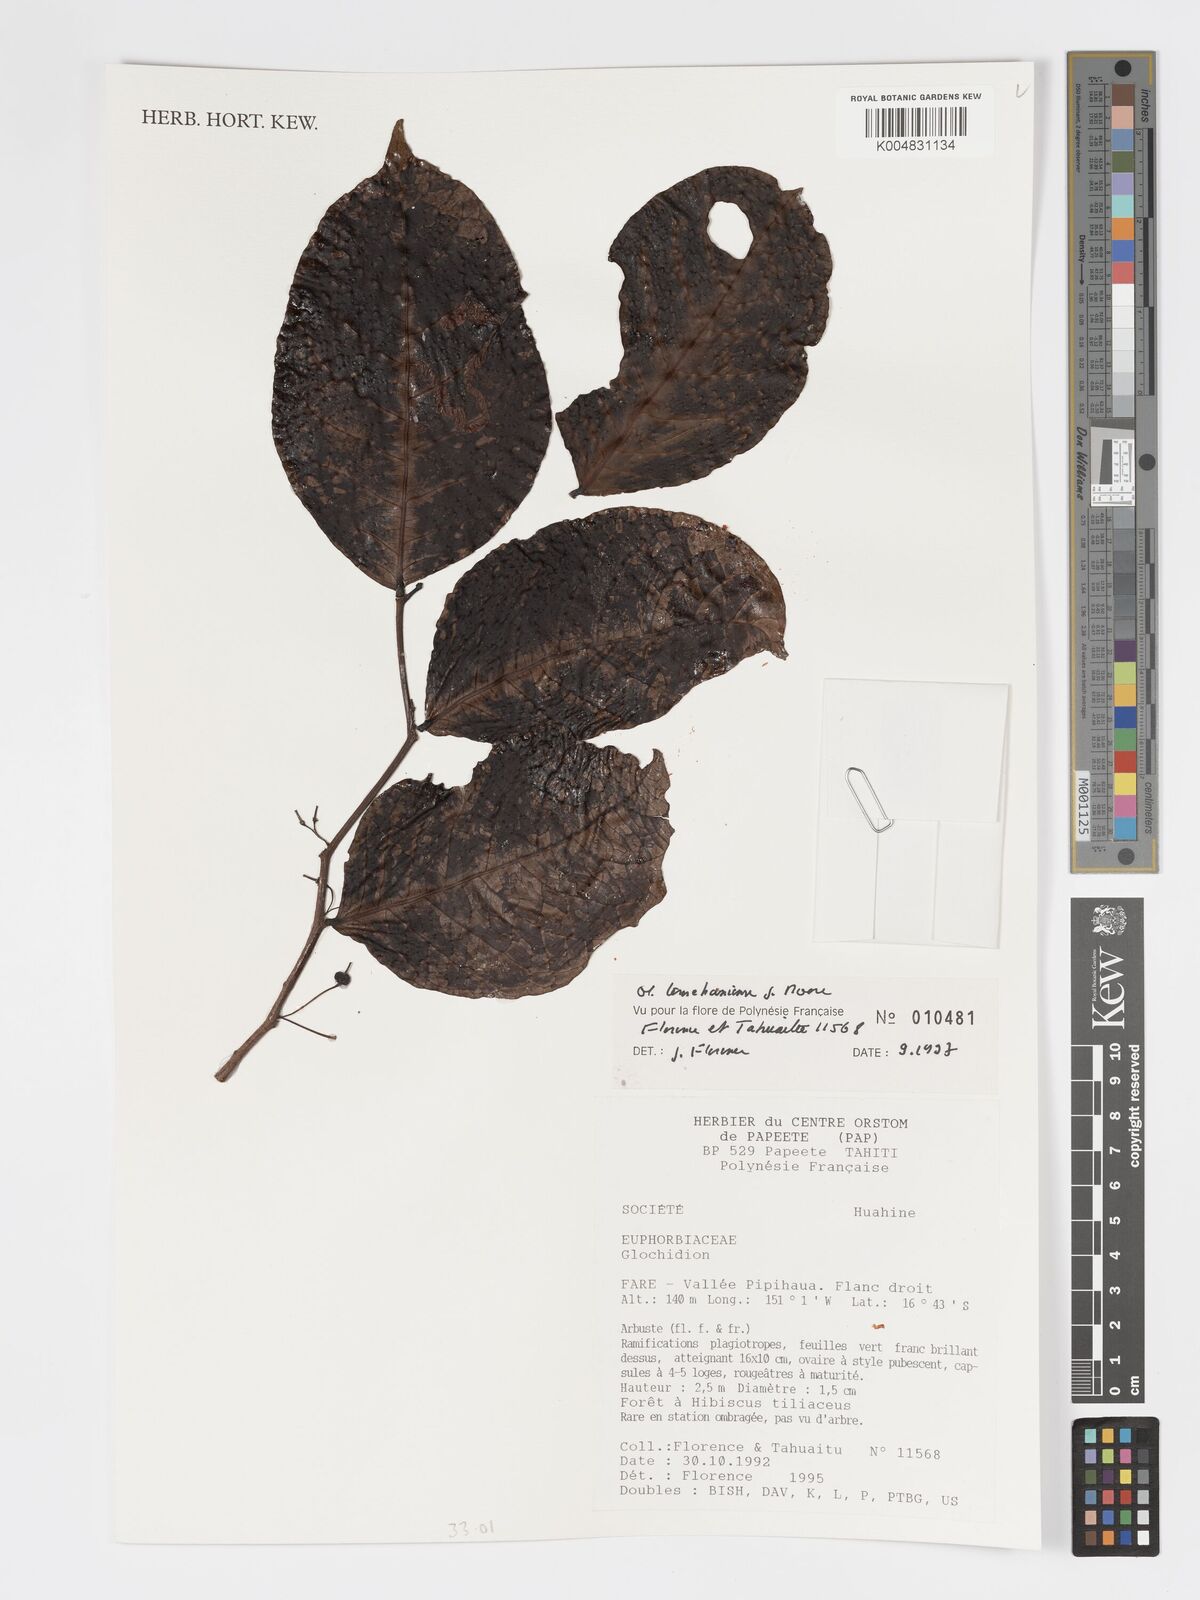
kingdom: Plantae
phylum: Tracheophyta
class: Magnoliopsida
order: Malpighiales
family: Phyllanthaceae
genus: Glochidion
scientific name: Glochidion temehaniense
